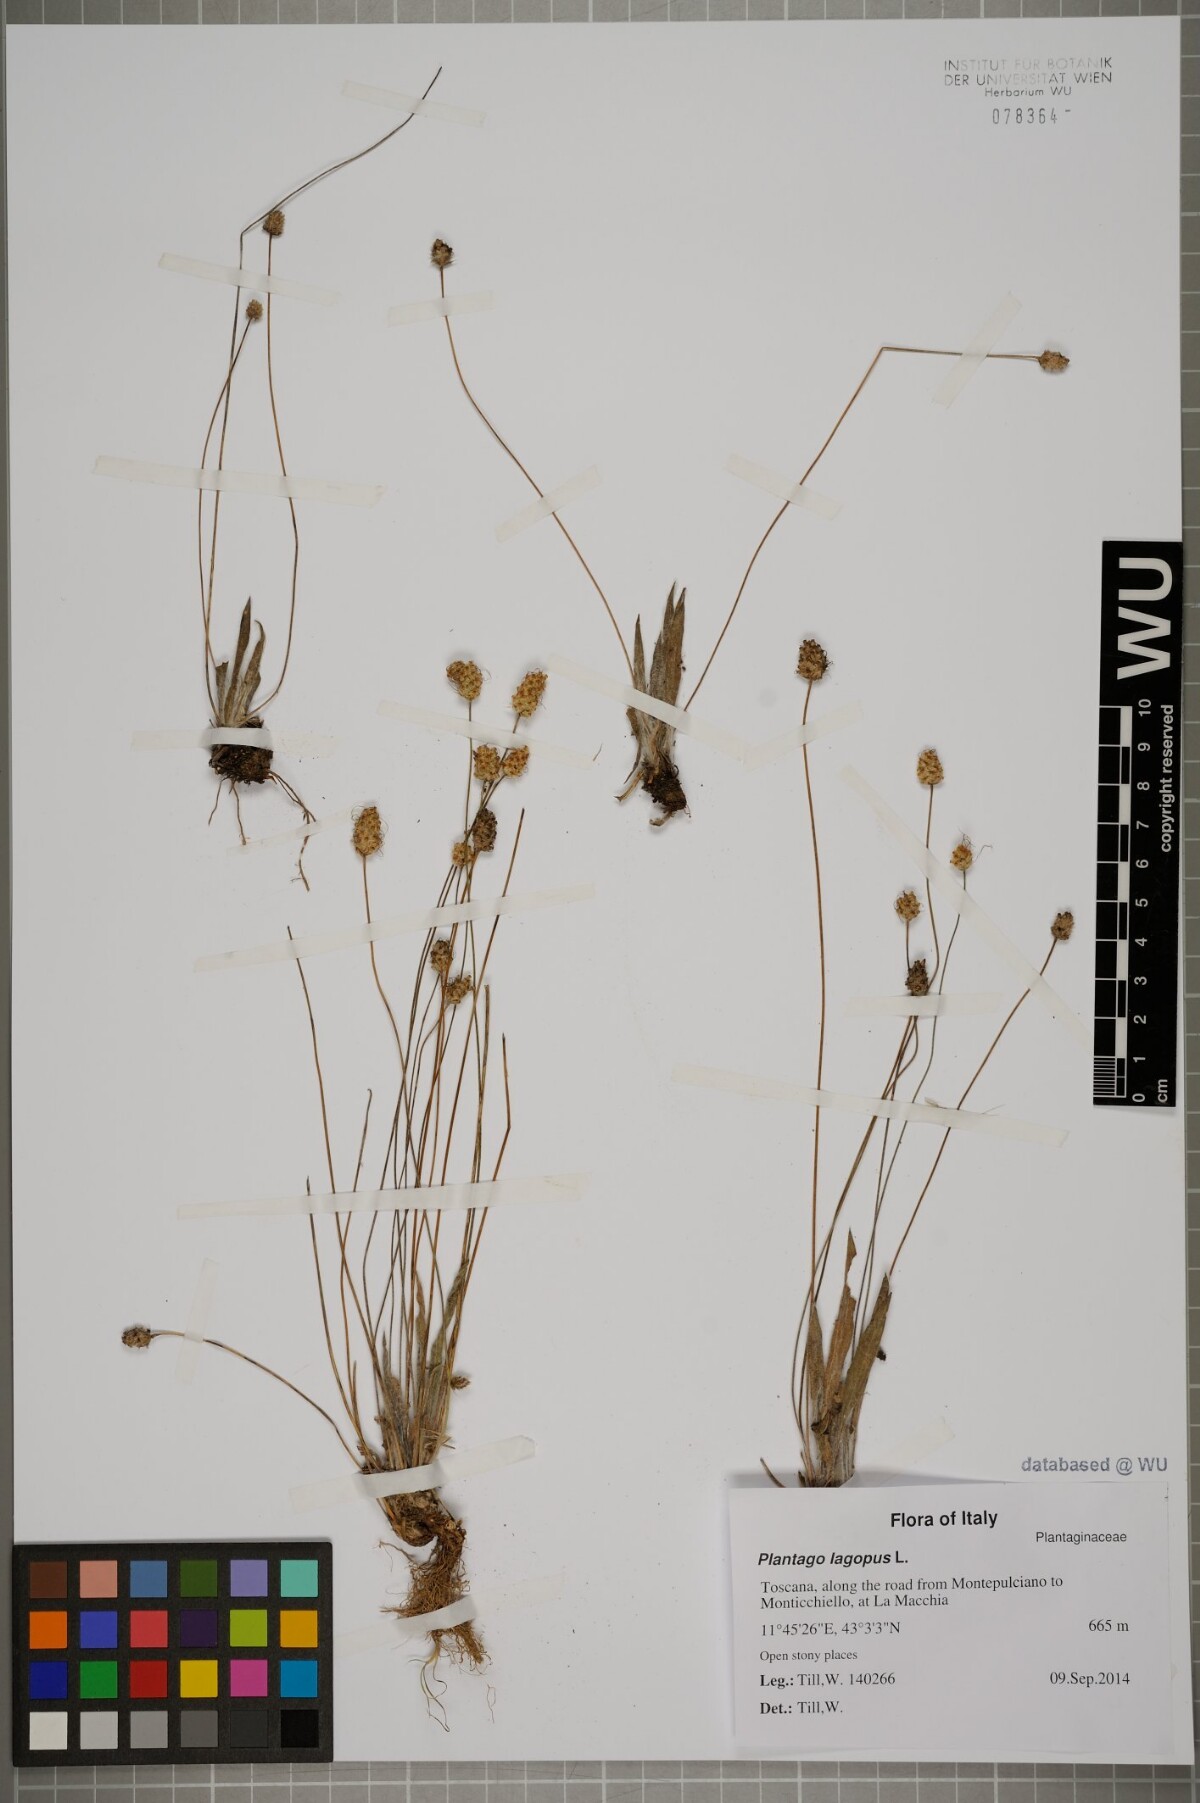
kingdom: Plantae
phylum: Tracheophyta
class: Magnoliopsida
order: Lamiales
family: Plantaginaceae
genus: Plantago
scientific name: Plantago lagopus
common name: Hare-foot plantain
